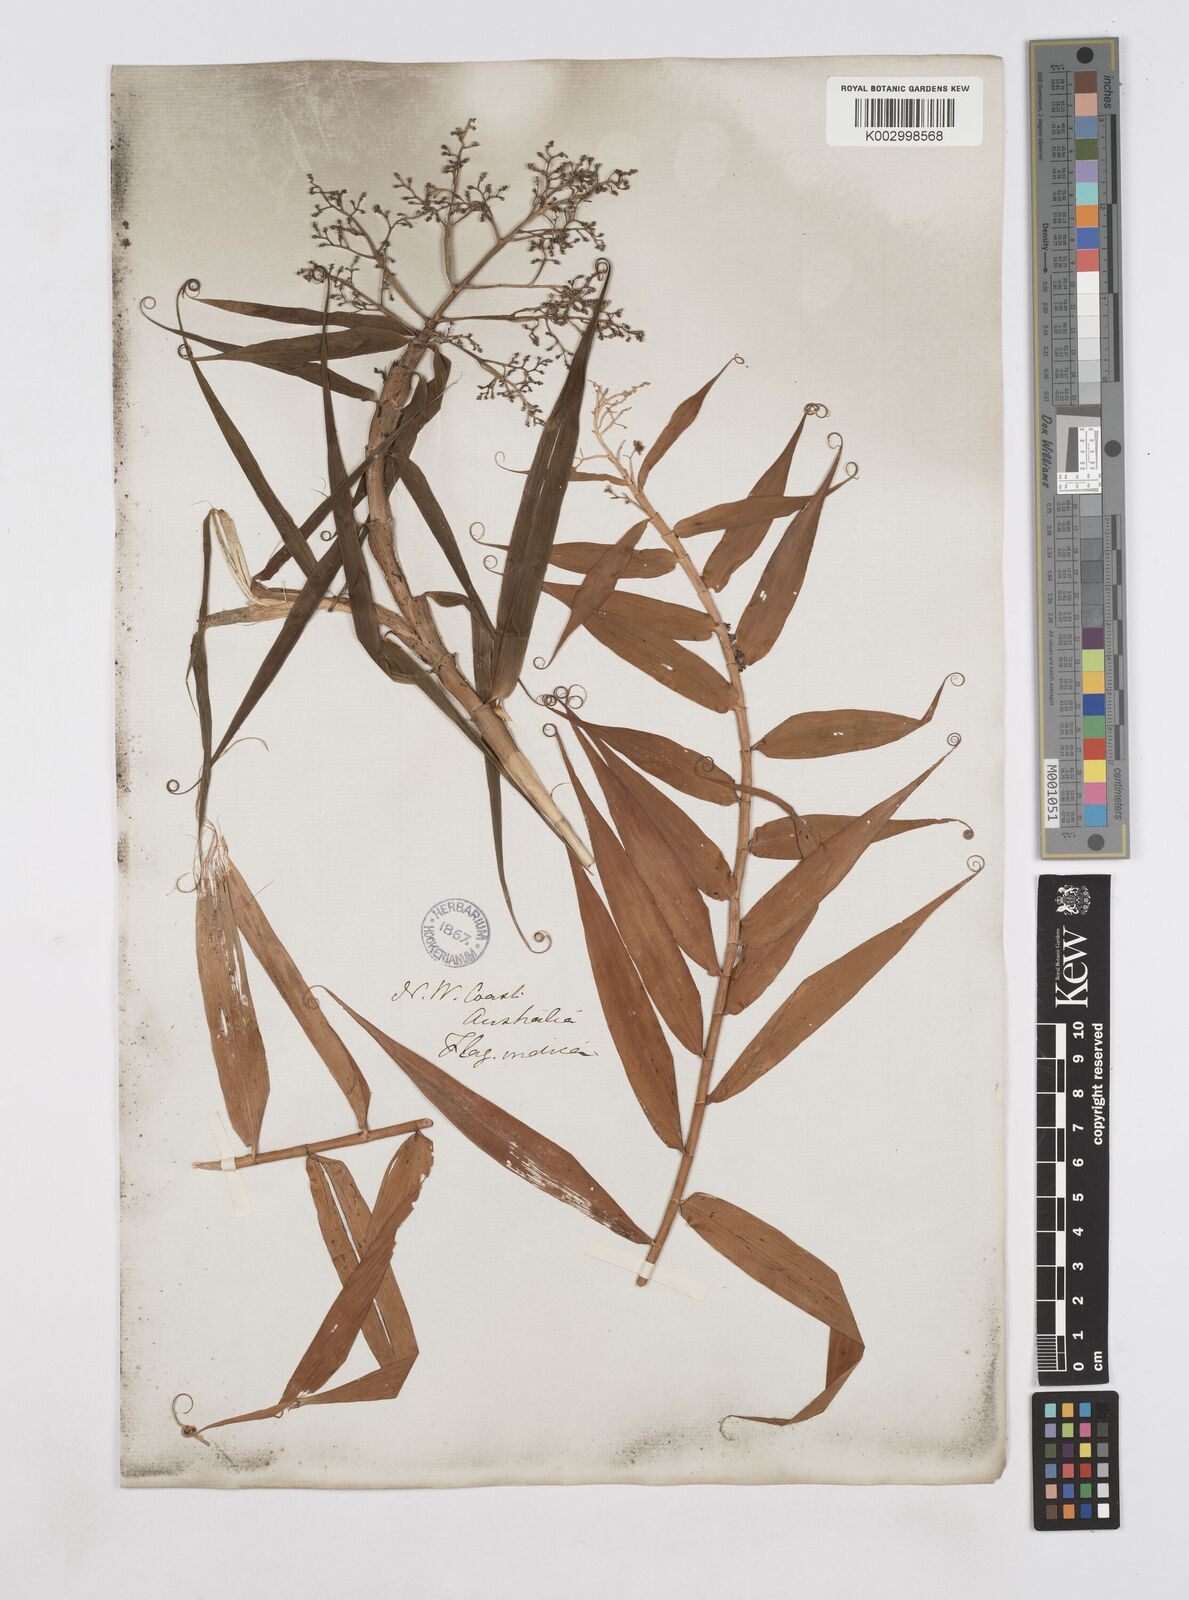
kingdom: Plantae
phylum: Tracheophyta
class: Liliopsida
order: Poales
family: Flagellariaceae
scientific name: Flagellariaceae
